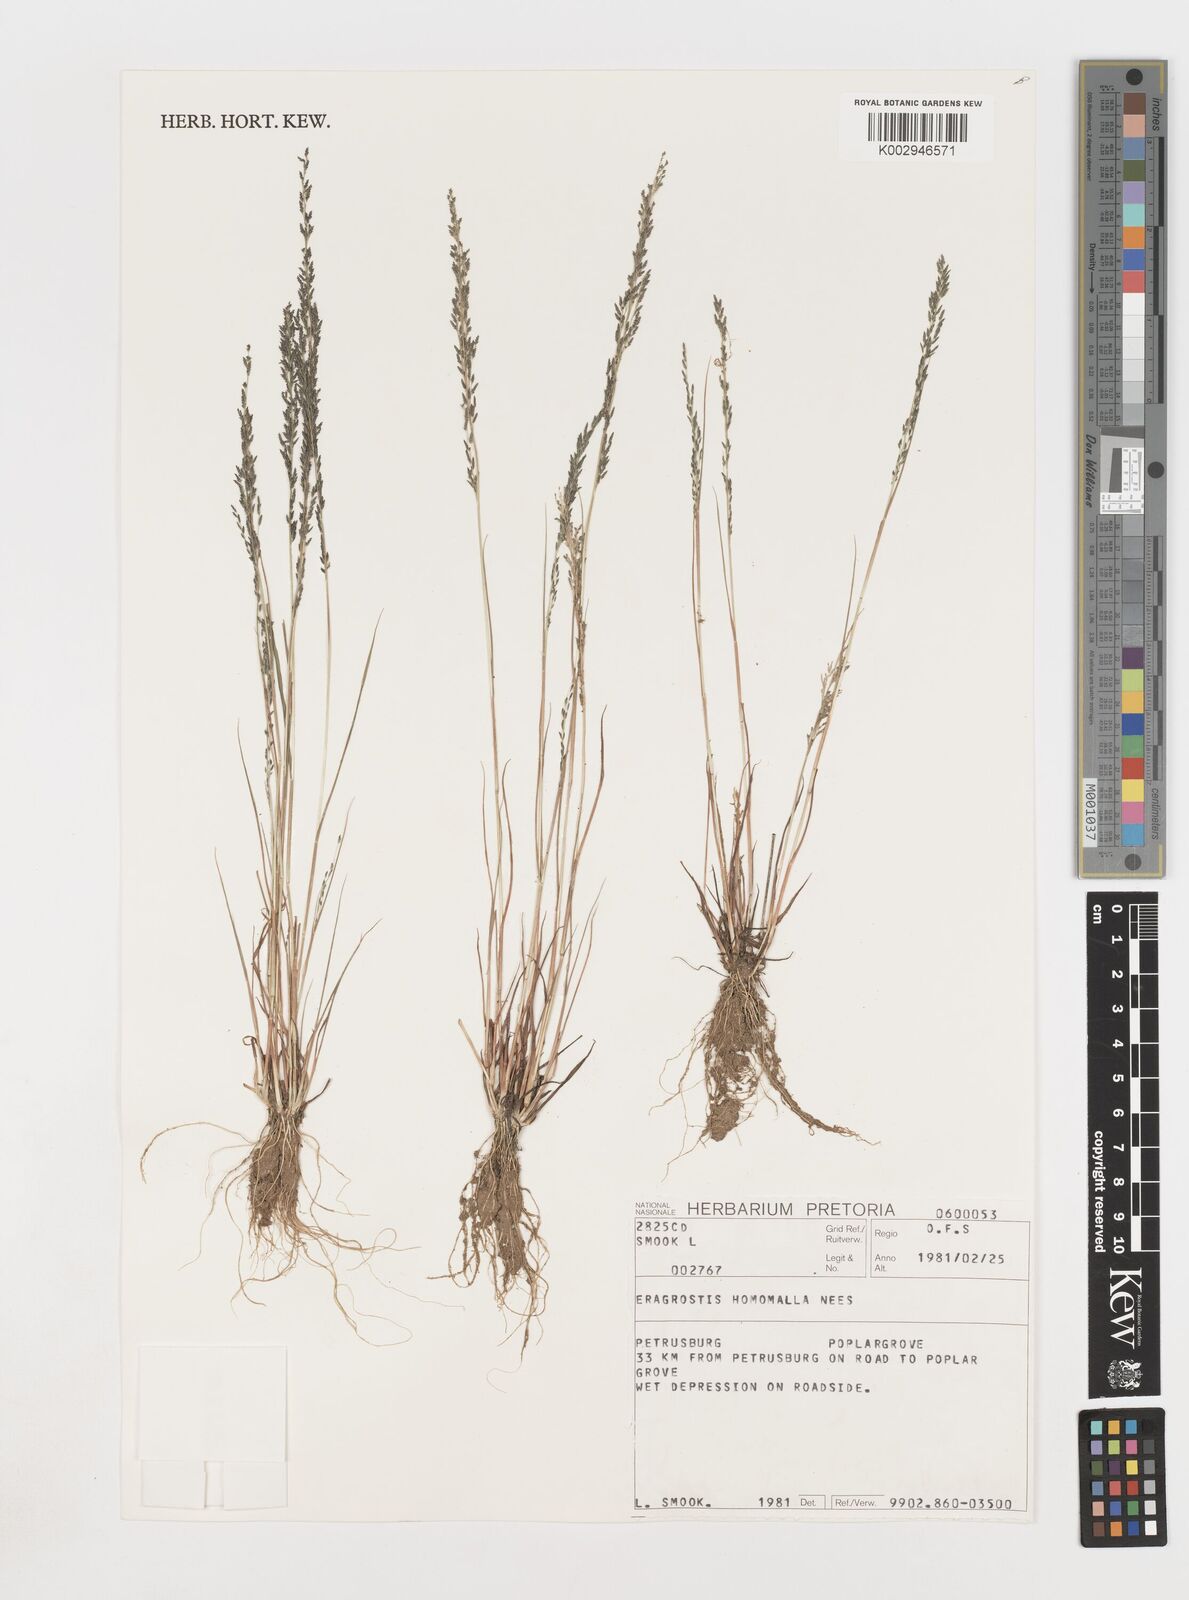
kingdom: Plantae
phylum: Tracheophyta
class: Liliopsida
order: Poales
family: Poaceae
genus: Eragrostis
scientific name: Eragrostis homomalla
